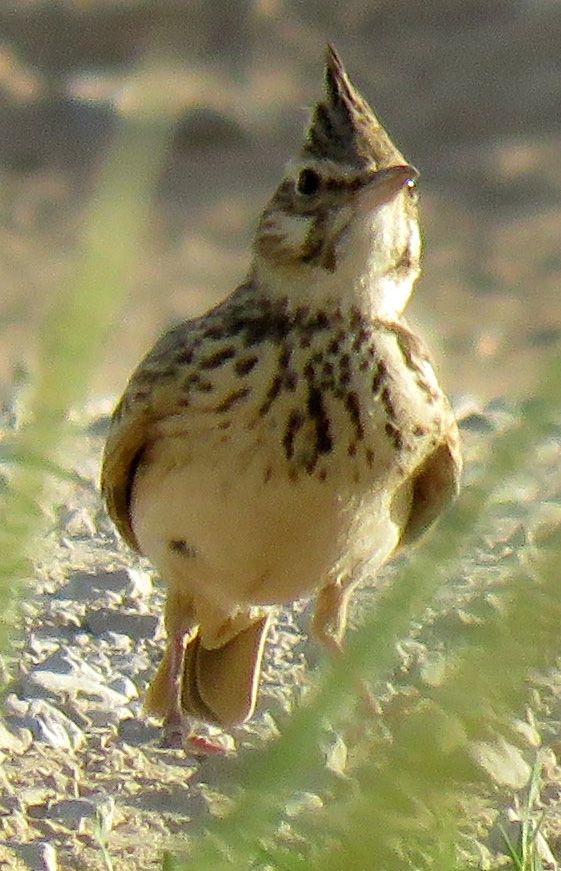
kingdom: Animalia
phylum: Chordata
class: Aves
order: Passeriformes
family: Alaudidae
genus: Galerida
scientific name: Galerida cristata
